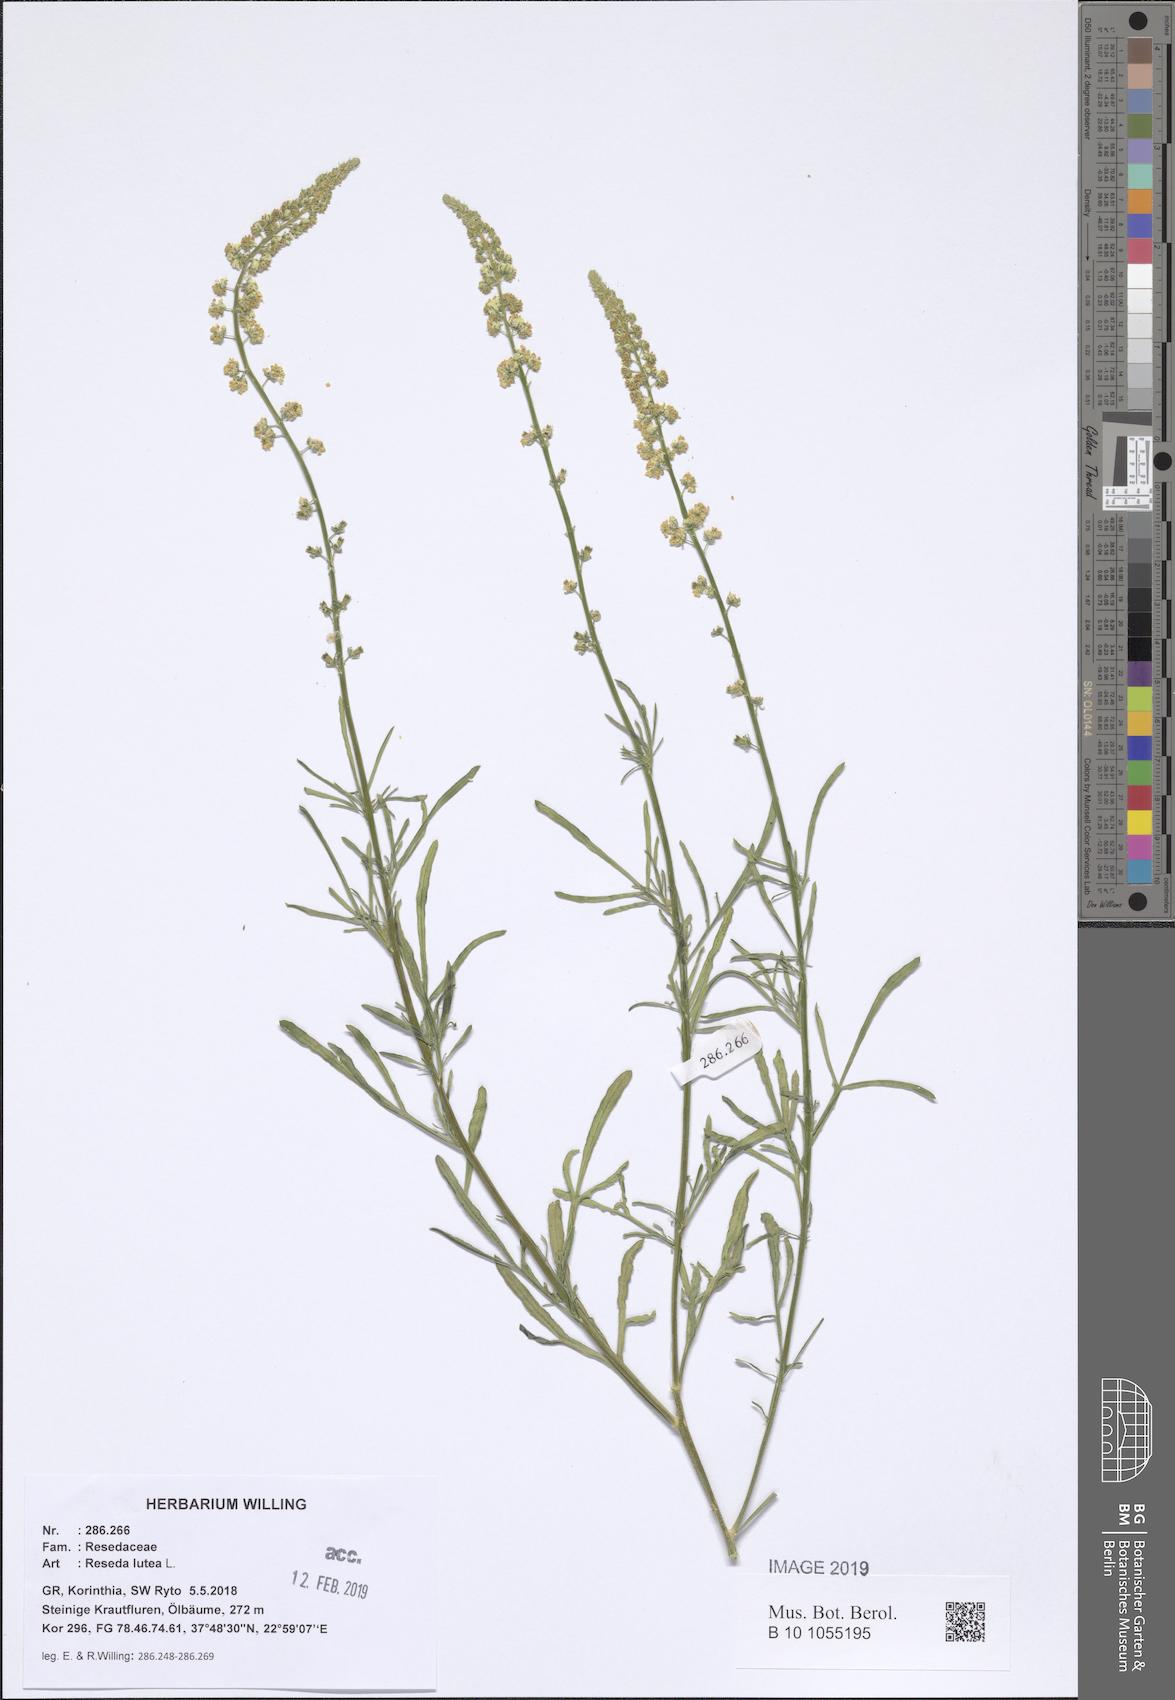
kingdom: Plantae
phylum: Tracheophyta
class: Magnoliopsida
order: Brassicales
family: Resedaceae
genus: Reseda
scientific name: Reseda lutea
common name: Wild mignonette
